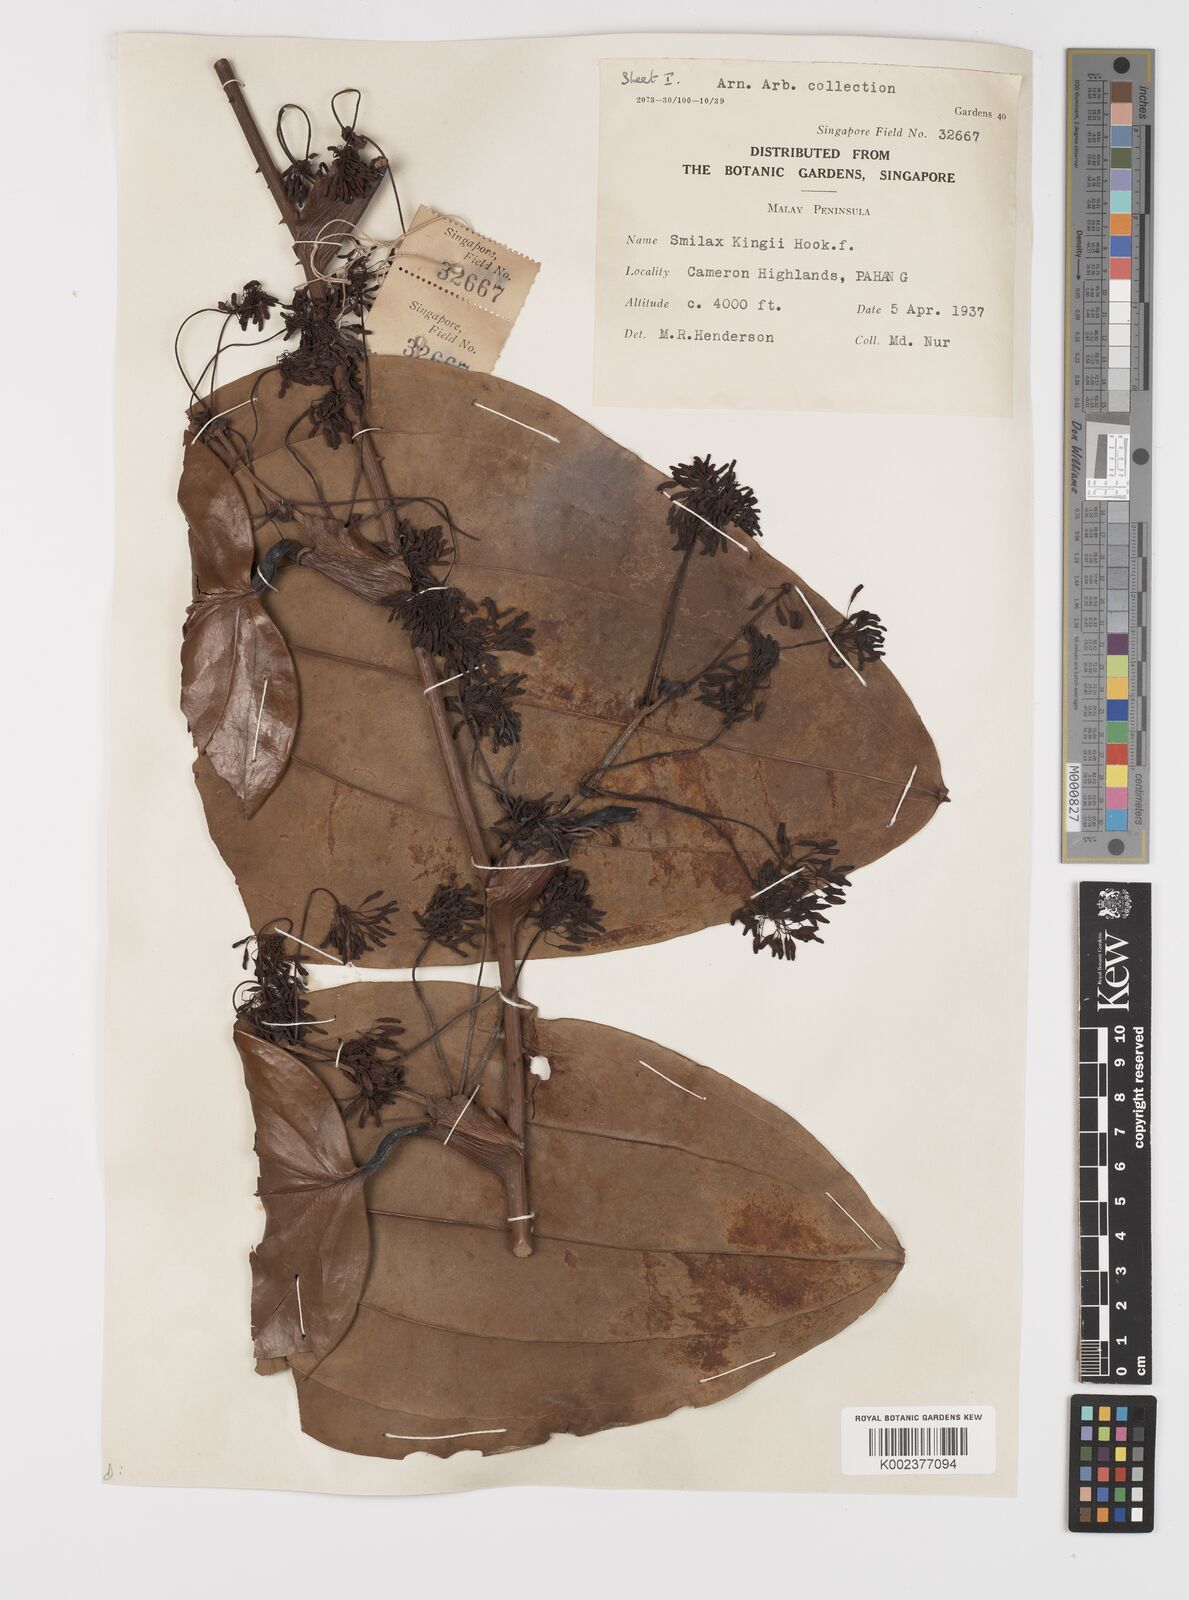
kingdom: Plantae
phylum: Tracheophyta
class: Liliopsida
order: Liliales
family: Smilacaceae
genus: Smilax
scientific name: Smilax kingii
